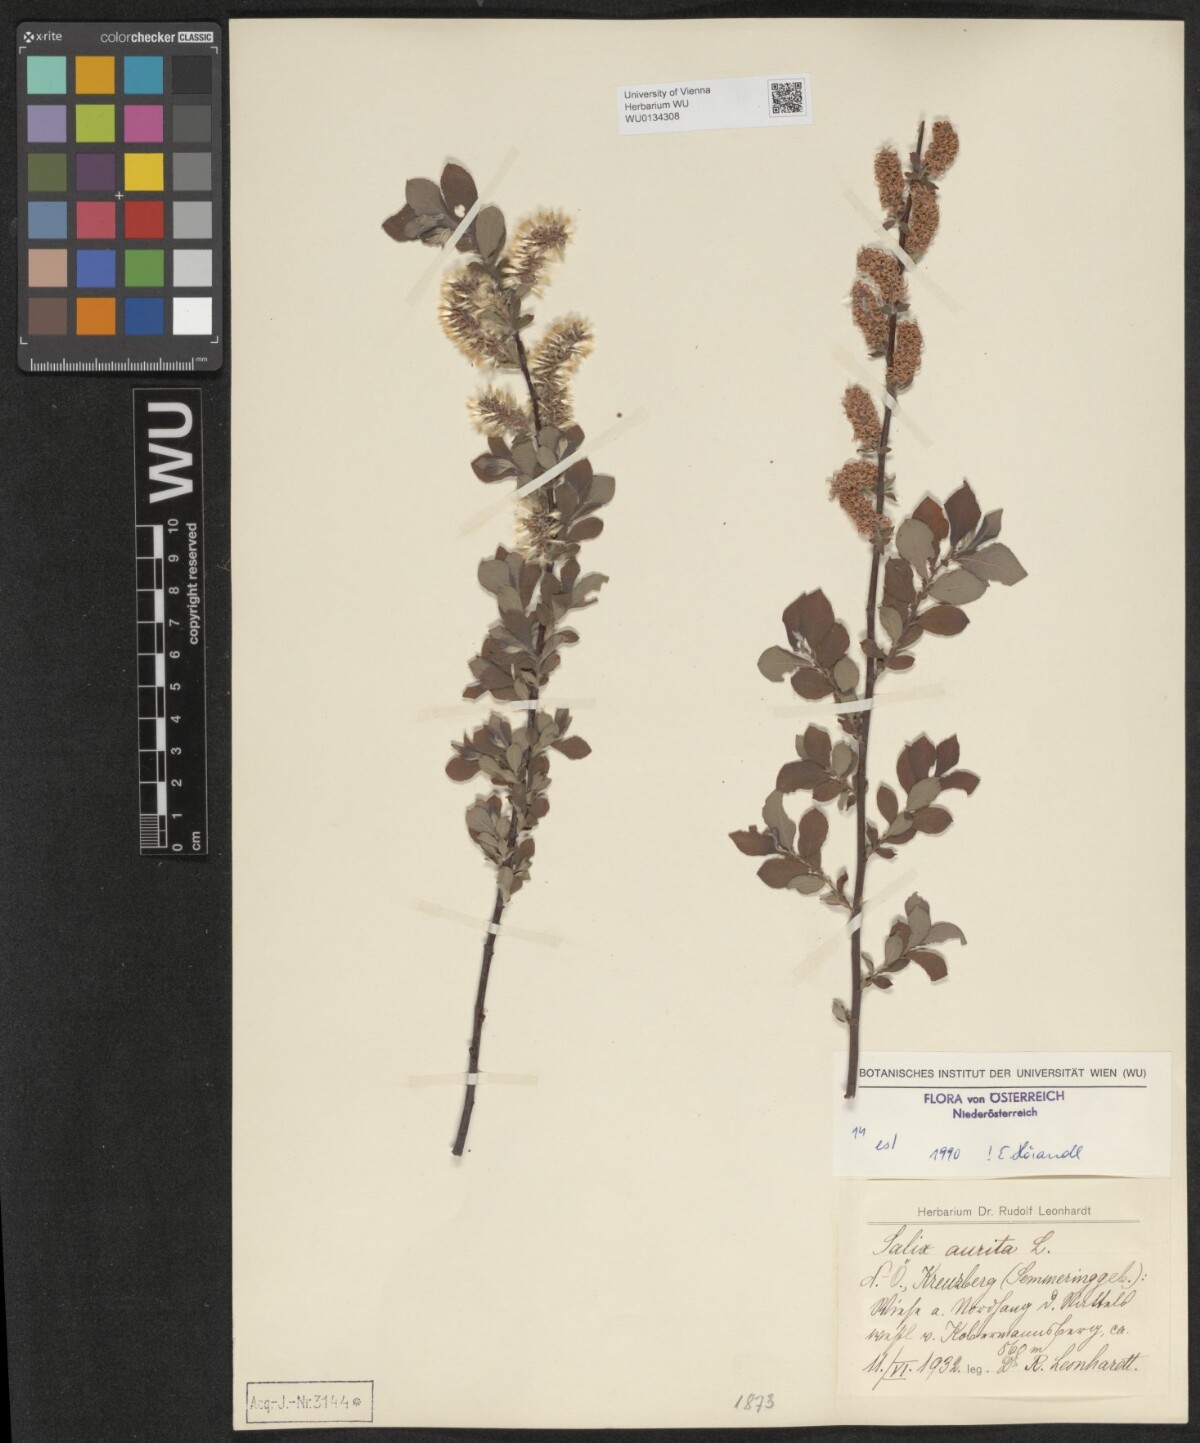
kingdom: Plantae
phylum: Tracheophyta
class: Magnoliopsida
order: Malpighiales
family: Salicaceae
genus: Salix
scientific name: Salix aurita
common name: Eared willow
